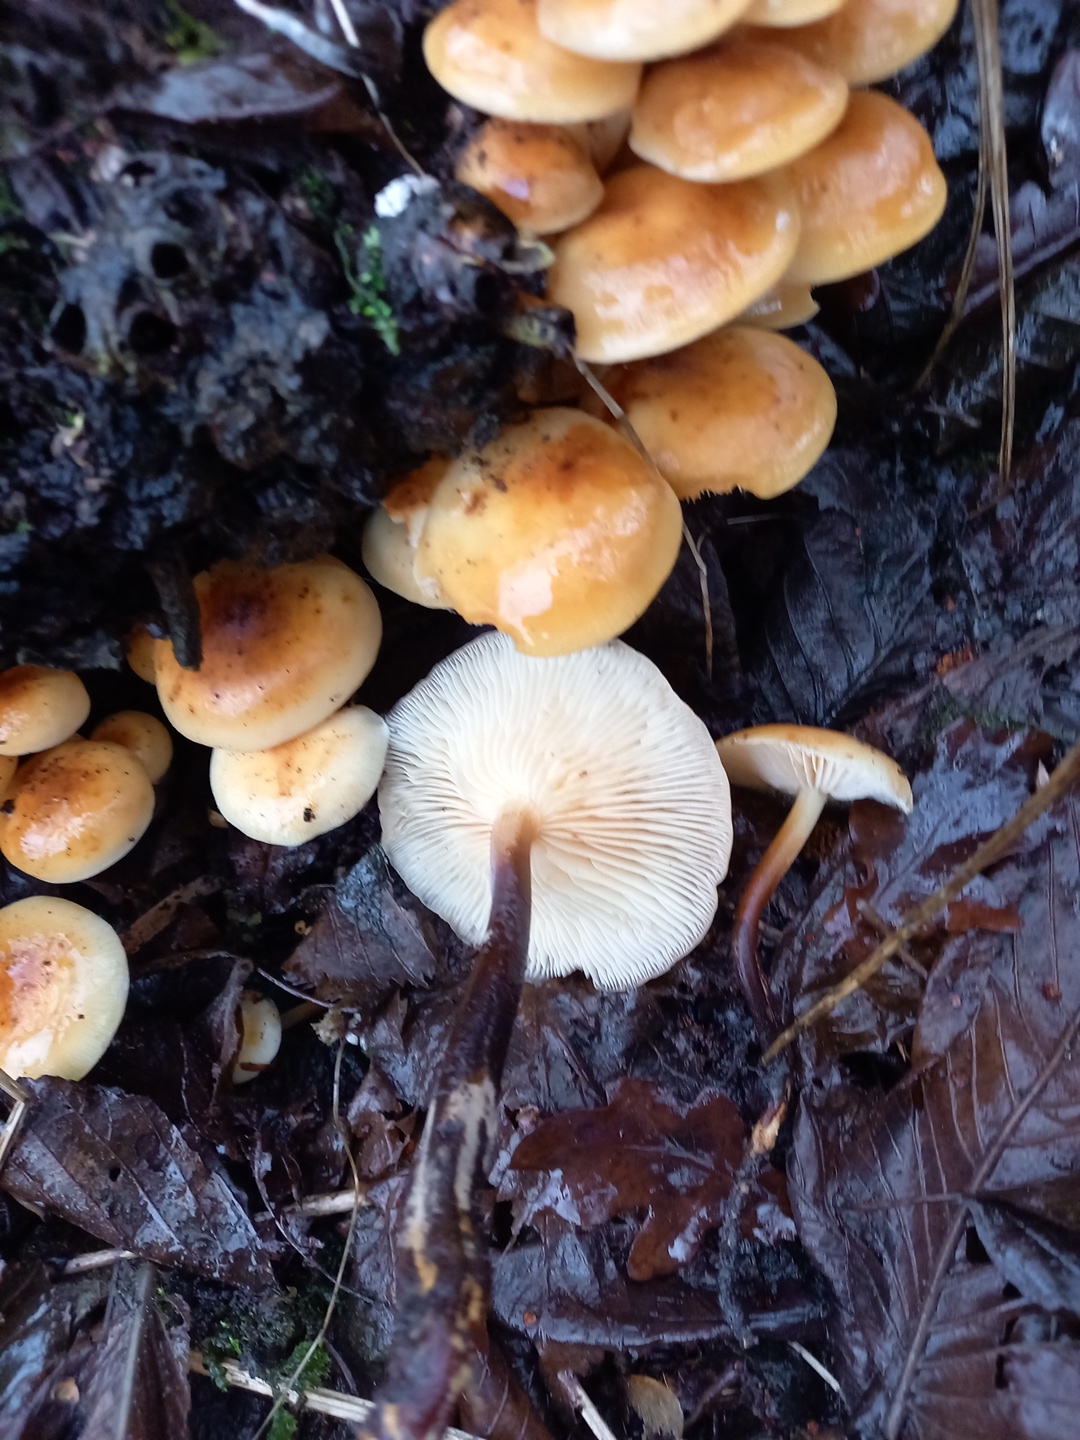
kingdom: Fungi
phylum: Basidiomycota
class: Agaricomycetes
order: Agaricales
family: Physalacriaceae
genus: Flammulina
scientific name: Flammulina velutipes
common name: gul fløjlsfod
